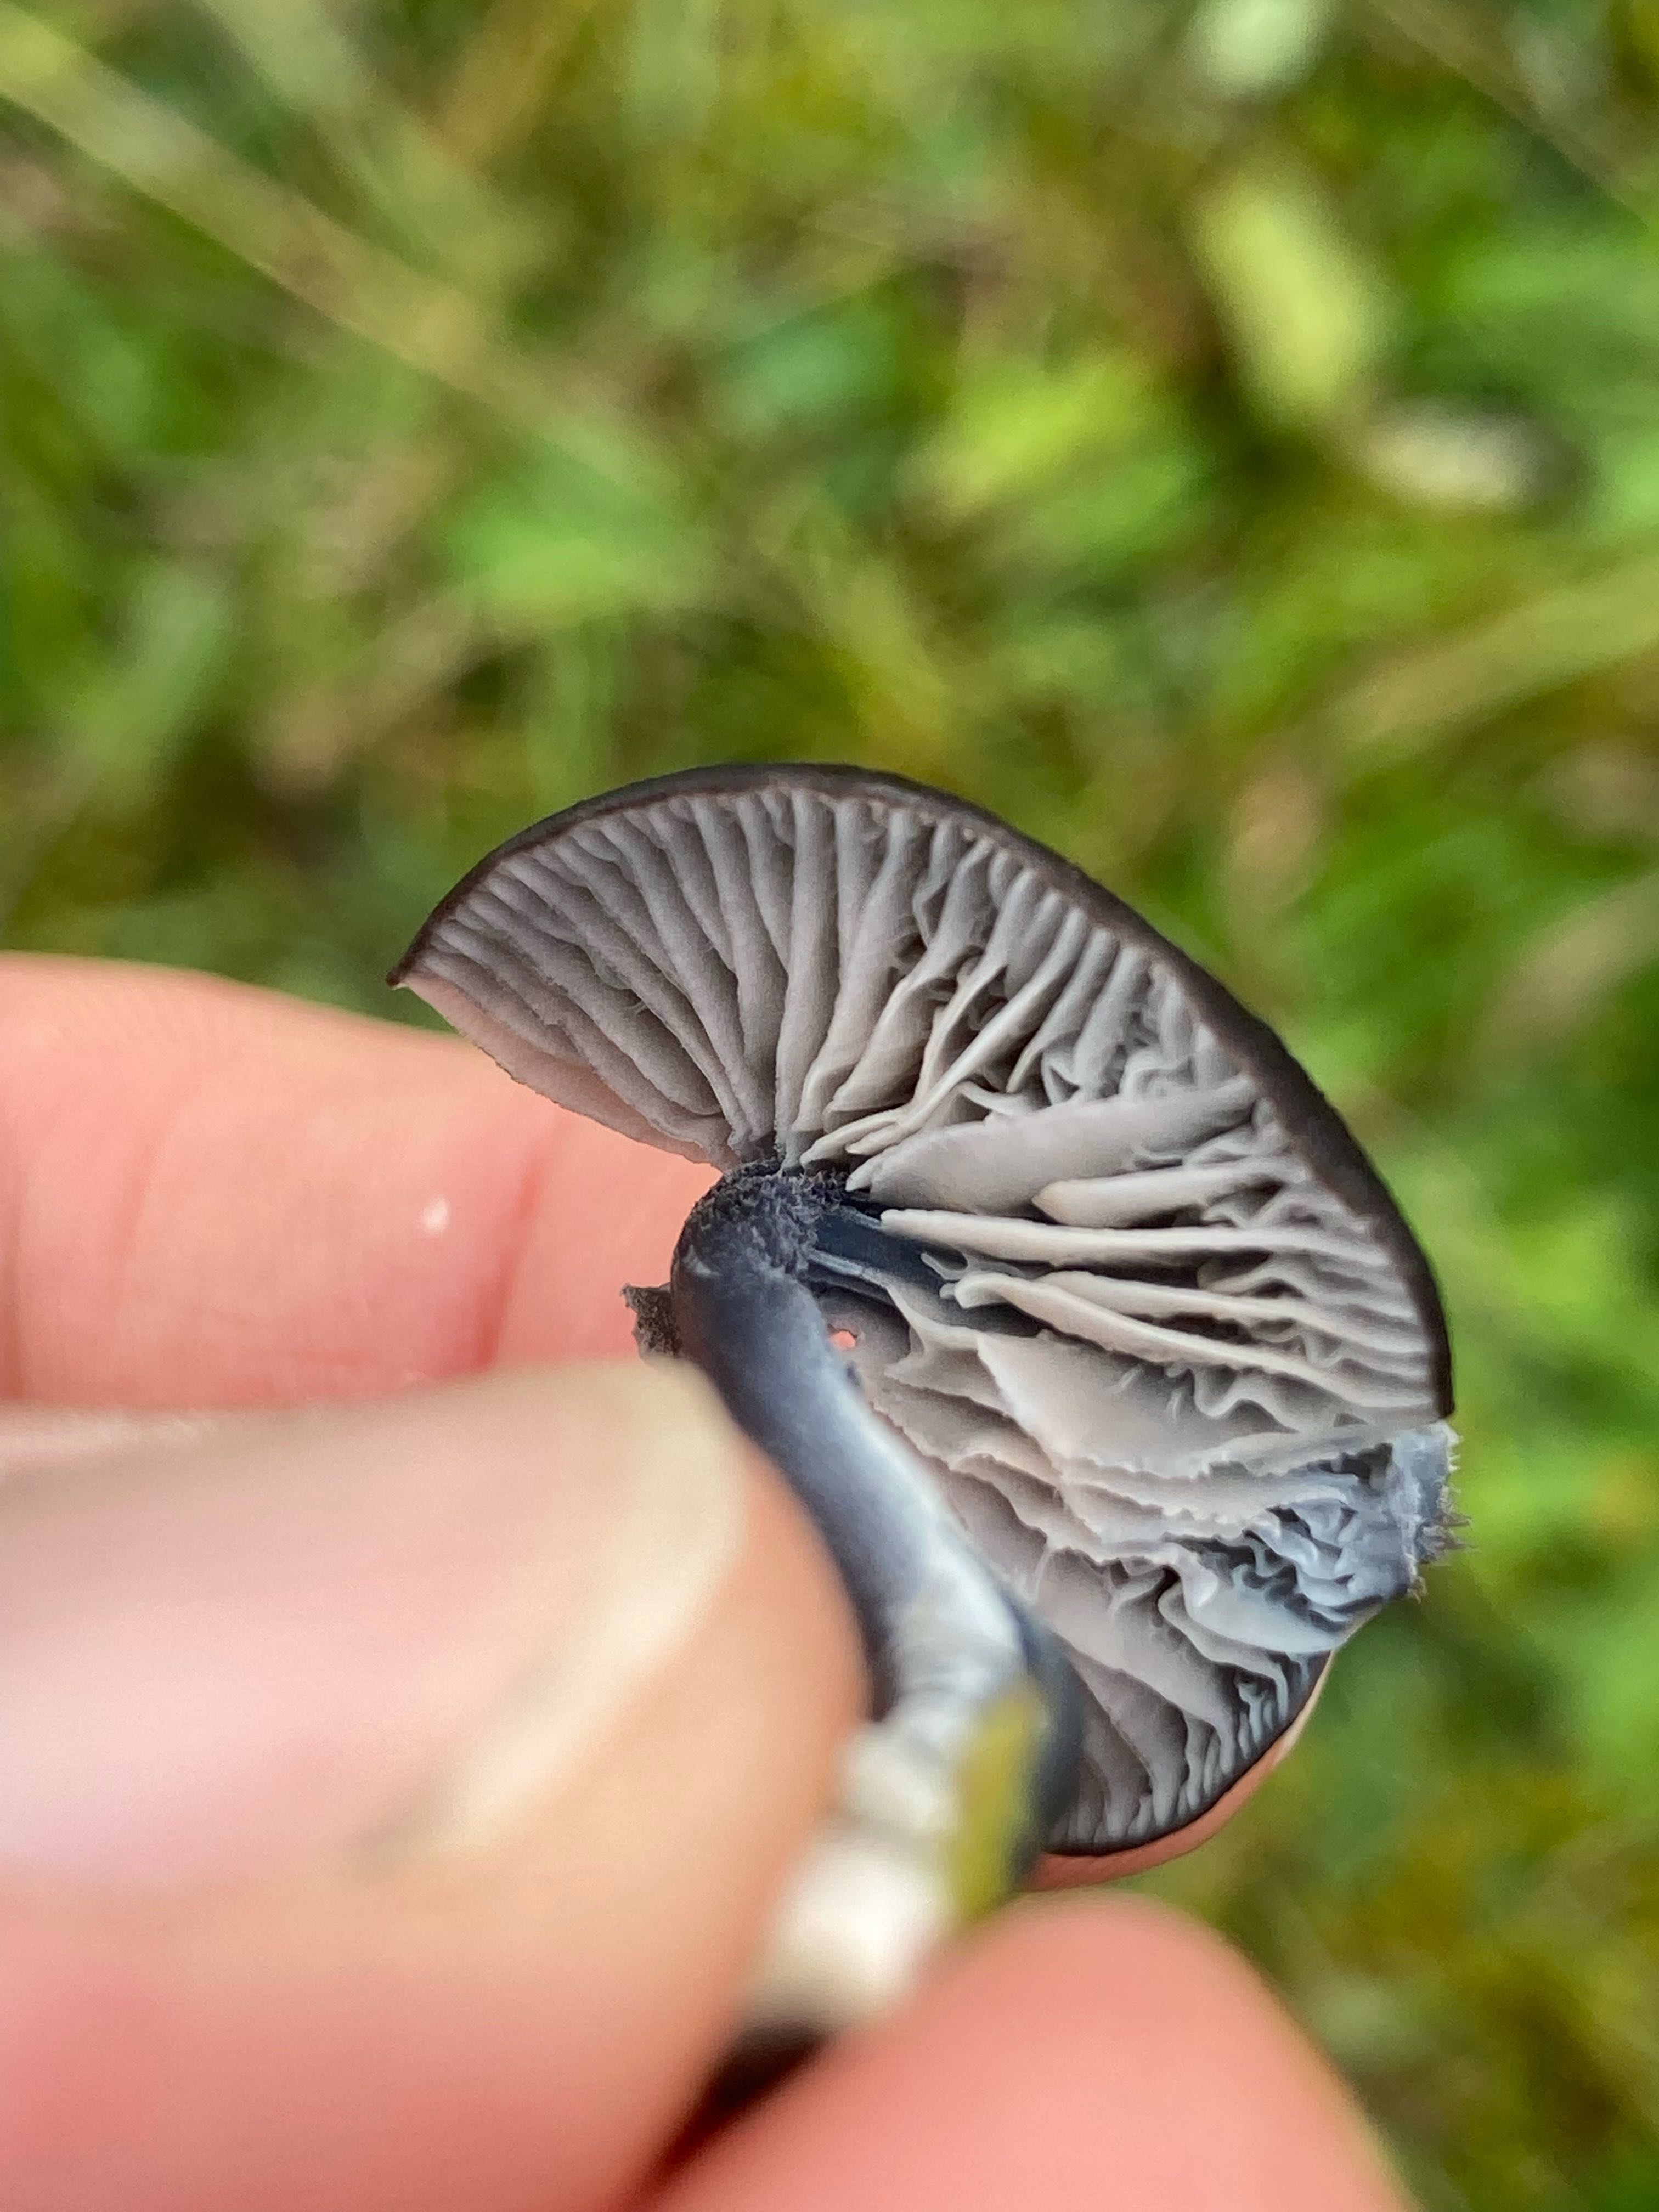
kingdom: Fungi
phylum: Basidiomycota
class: Agaricomycetes
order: Agaricales
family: Entolomataceae
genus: Entoloma
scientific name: Entoloma chalybeum
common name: blåbladet rødblad
